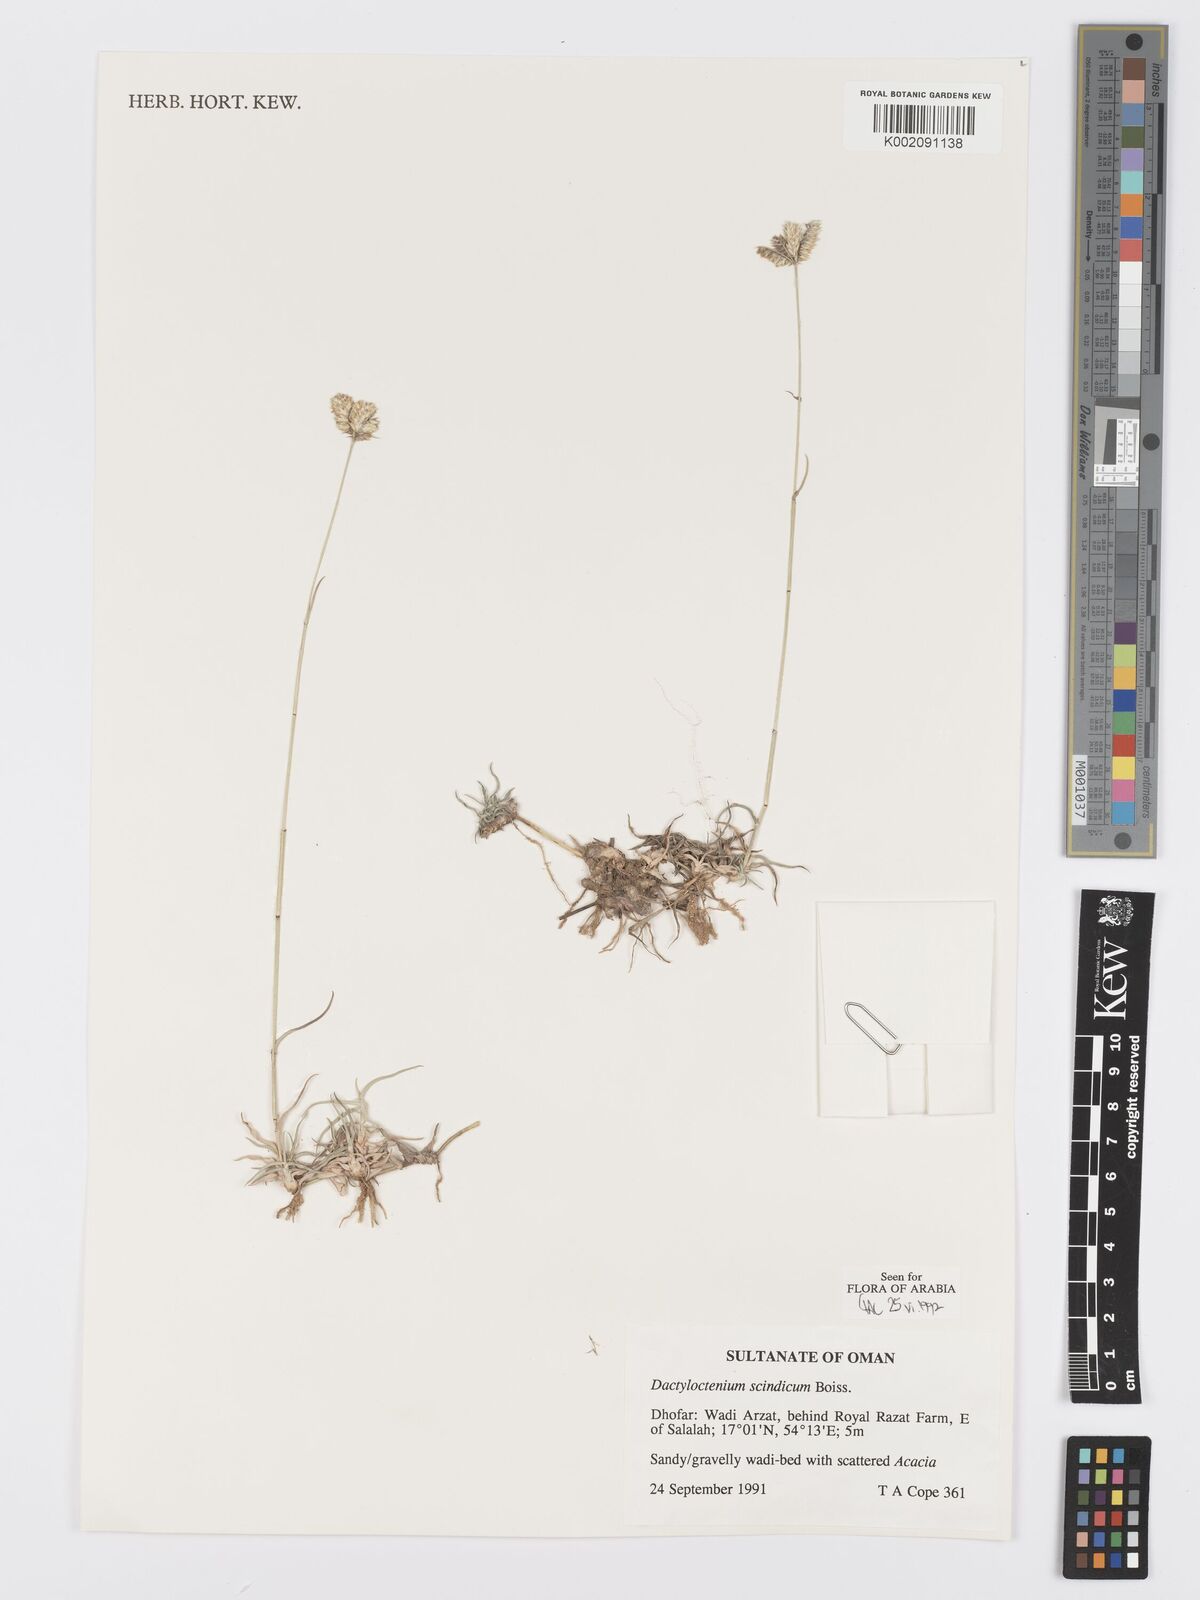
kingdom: Plantae
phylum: Tracheophyta
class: Liliopsida
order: Poales
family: Poaceae
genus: Dactyloctenium
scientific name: Dactyloctenium scindicum
